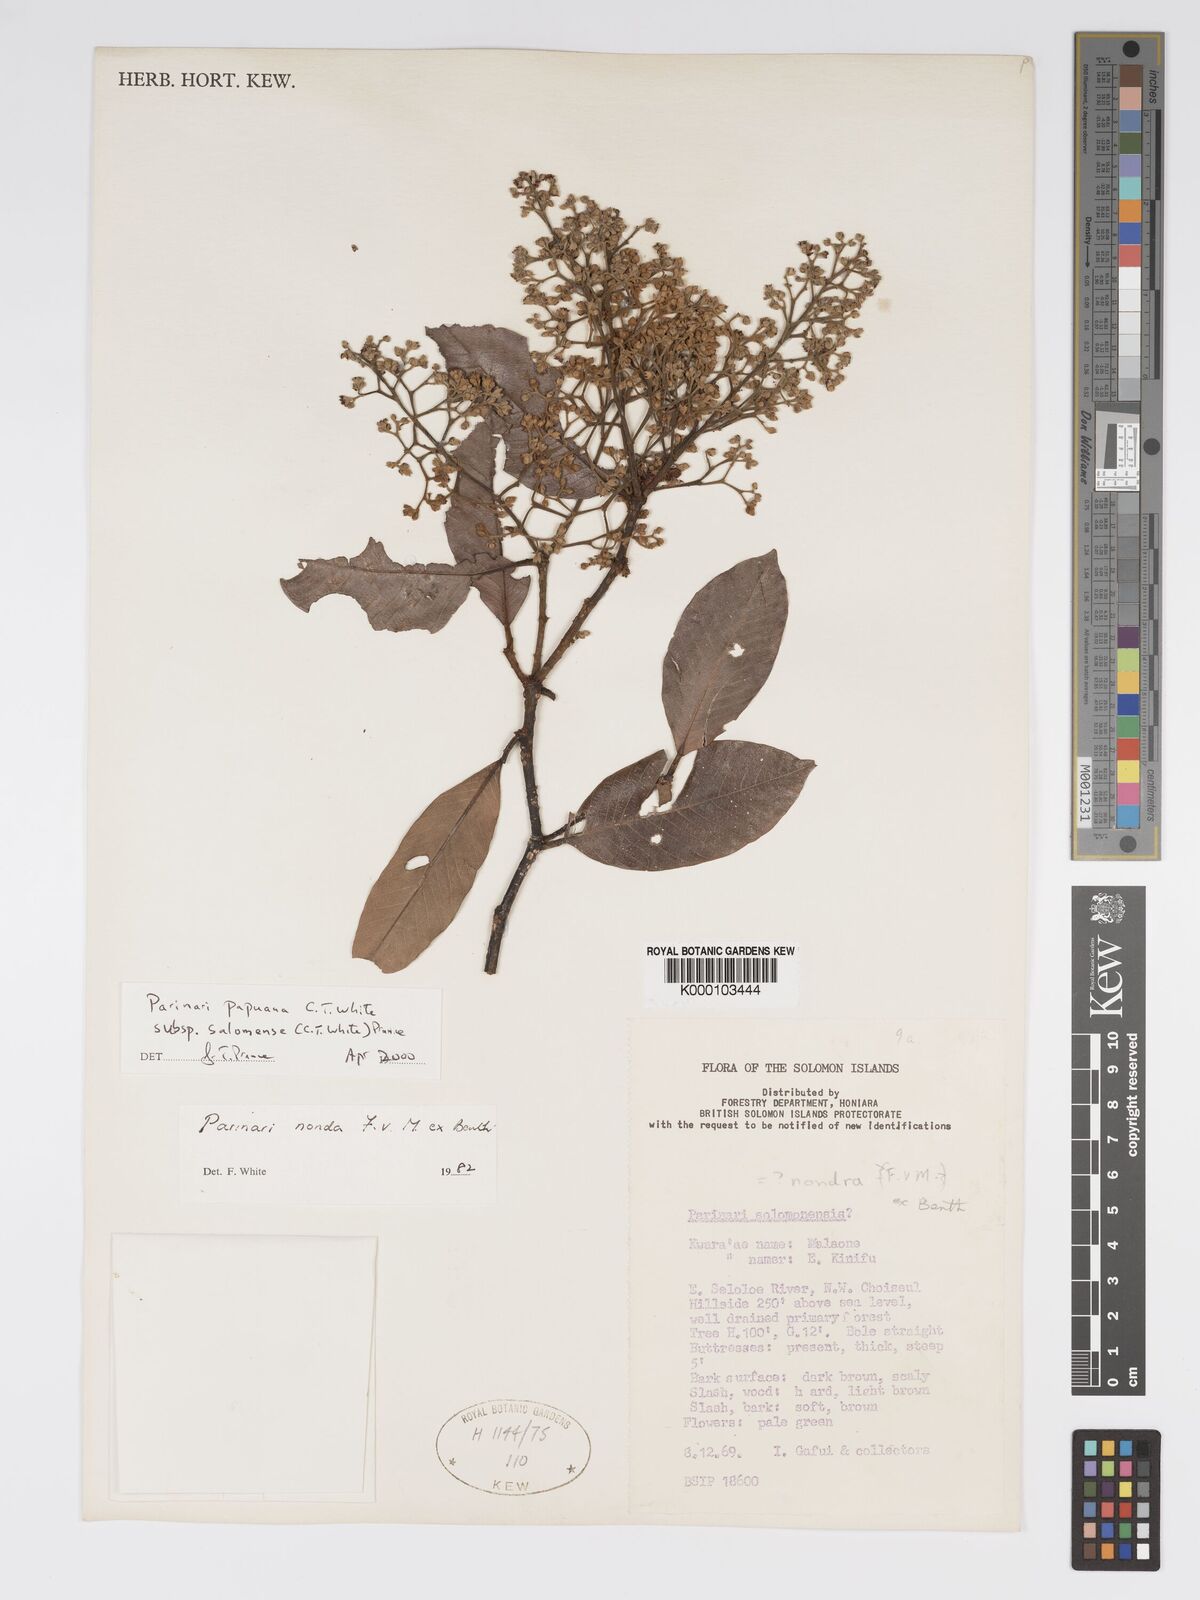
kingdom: Plantae
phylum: Tracheophyta
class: Magnoliopsida
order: Malpighiales
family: Chrysobalanaceae
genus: Parinari
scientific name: Parinari papuana
